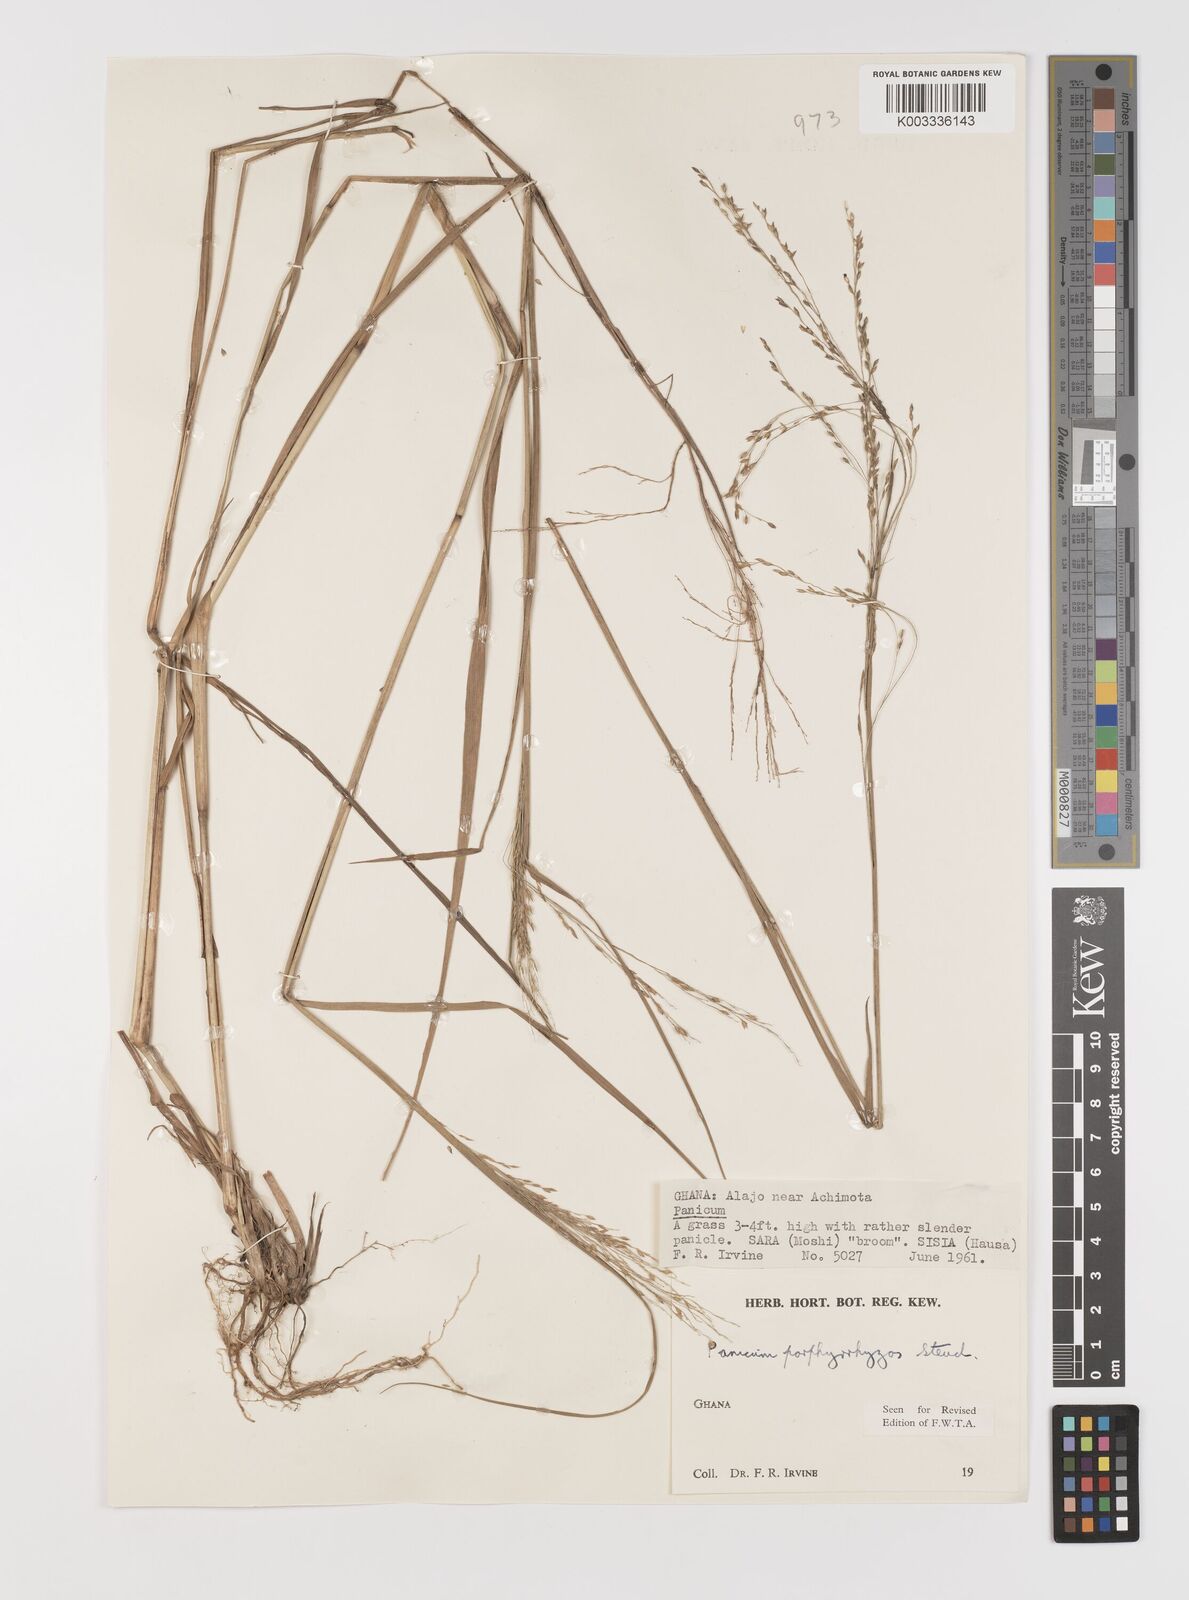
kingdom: Plantae
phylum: Tracheophyta
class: Liliopsida
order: Poales
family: Poaceae
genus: Panicum
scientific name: Panicum porphyrrhizos
